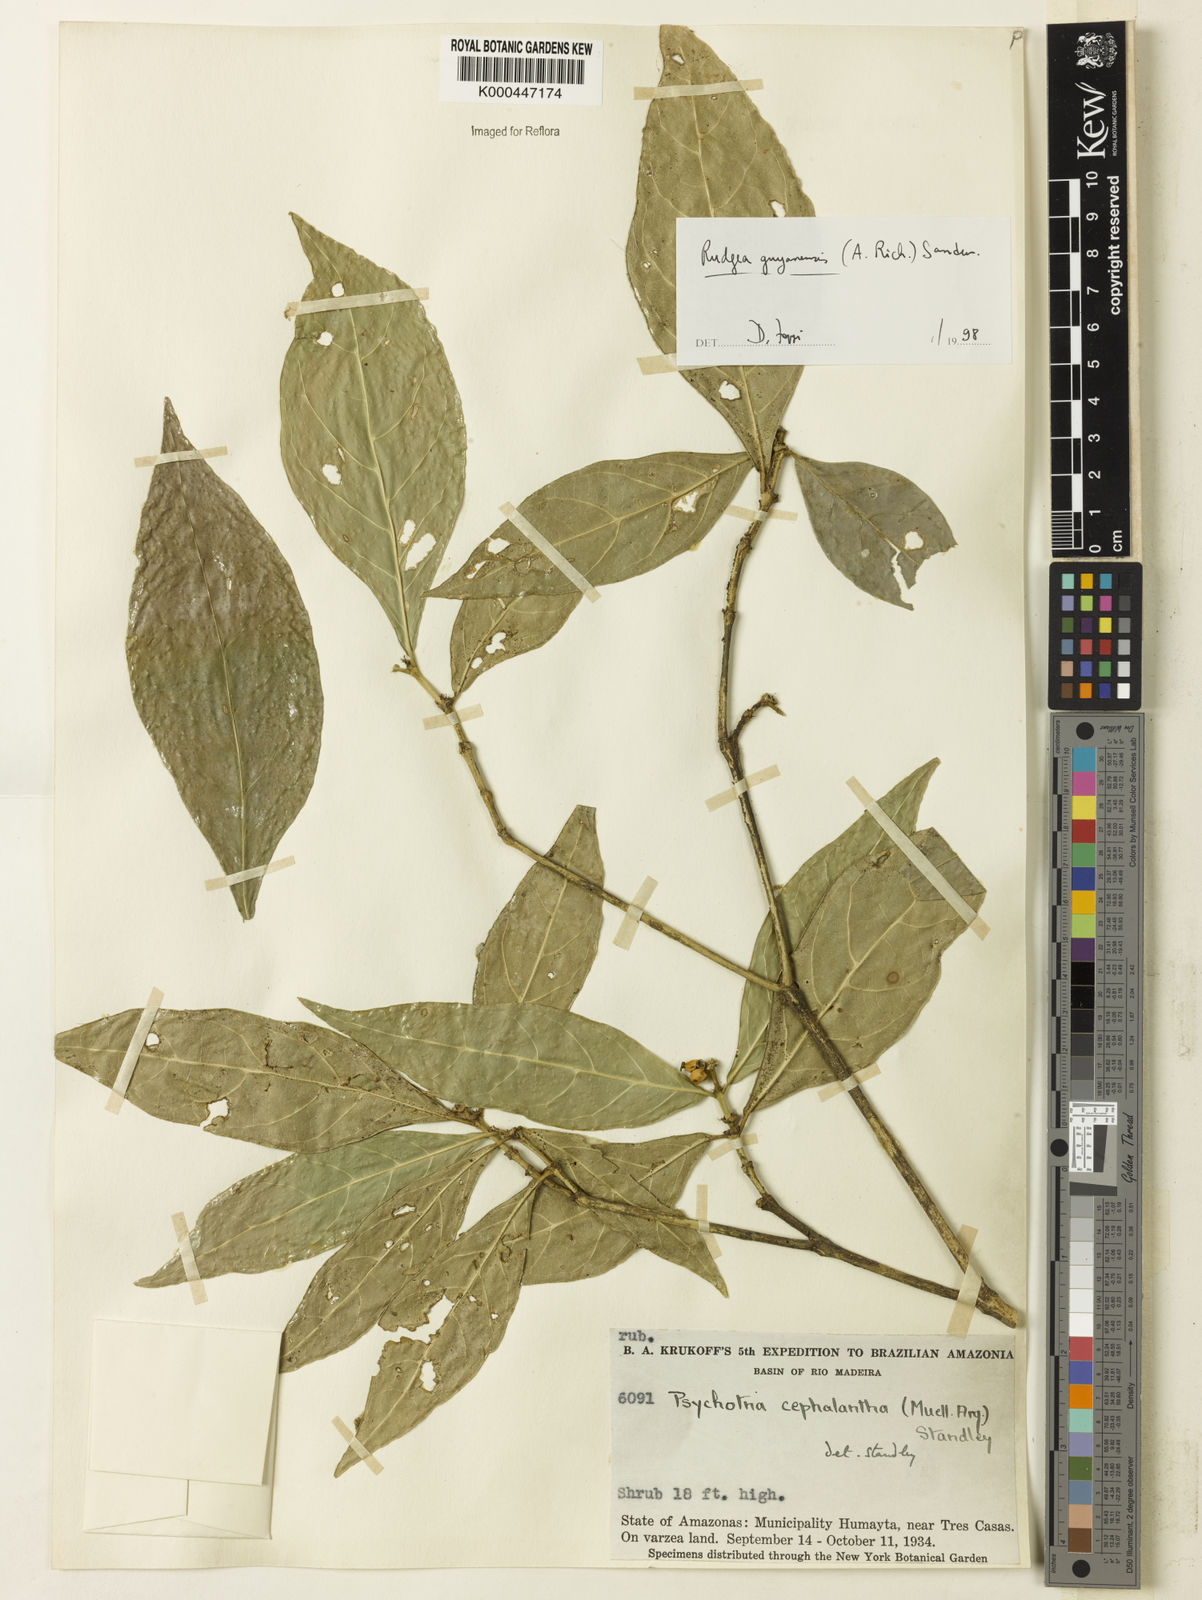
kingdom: Plantae
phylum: Tracheophyta
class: Magnoliopsida
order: Gentianales
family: Rubiaceae
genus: Rudgea
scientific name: Rudgea guianensis
